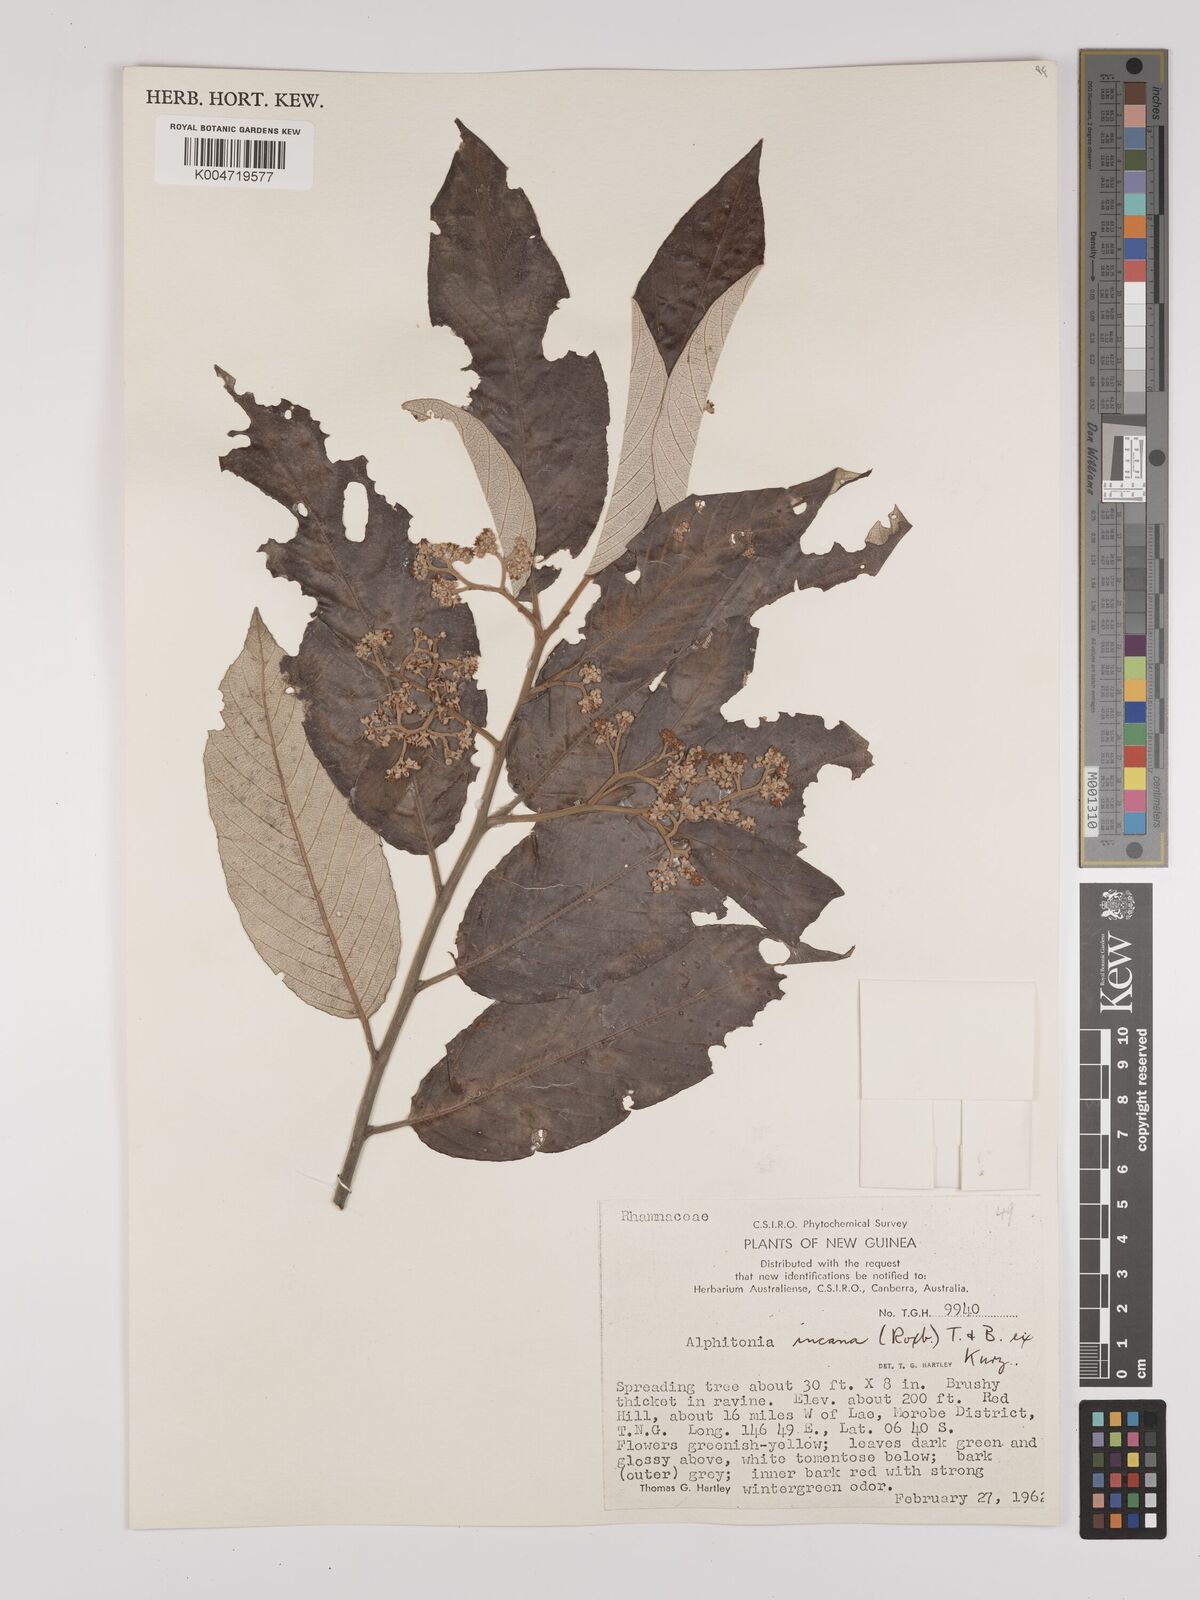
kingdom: Plantae
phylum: Tracheophyta
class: Magnoliopsida
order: Rosales
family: Rhamnaceae
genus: Alphitonia
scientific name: Alphitonia incana
